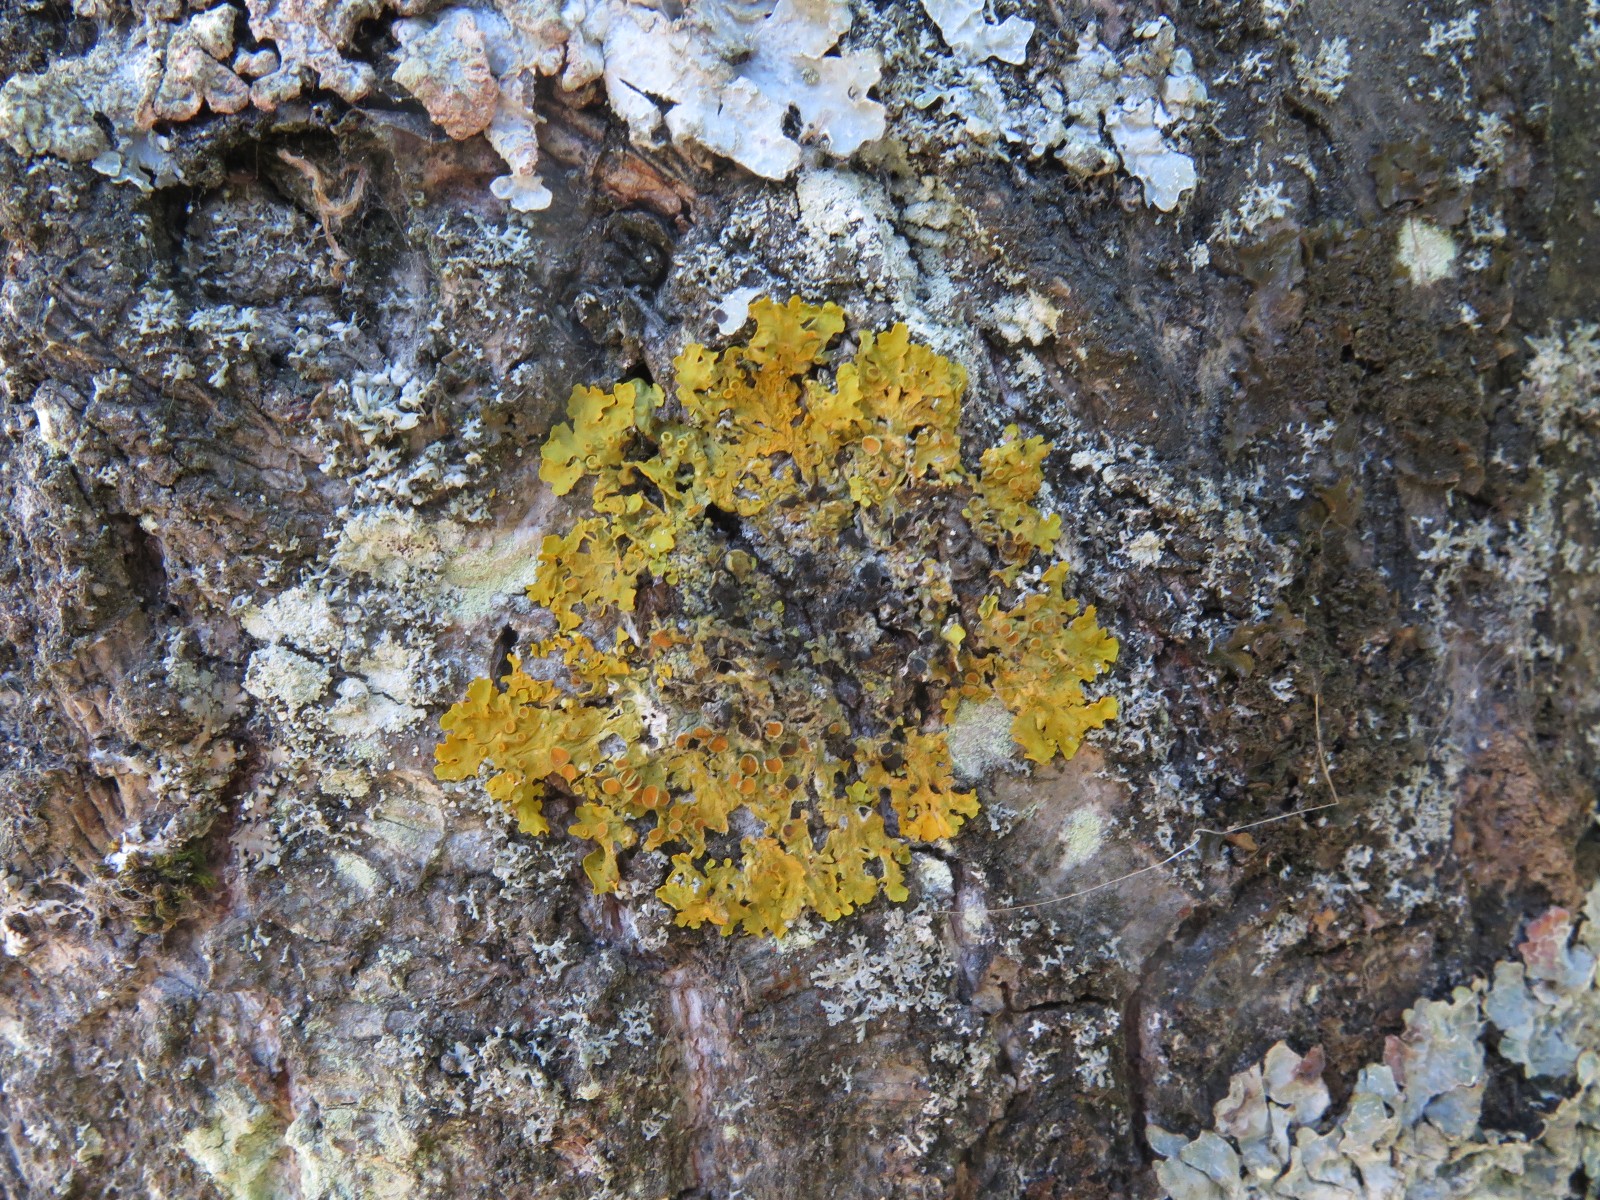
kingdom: Fungi
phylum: Ascomycota
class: Lecanoromycetes
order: Teloschistales
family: Teloschistaceae
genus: Xanthoria
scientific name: Xanthoria parietina
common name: almindelig væggelav
